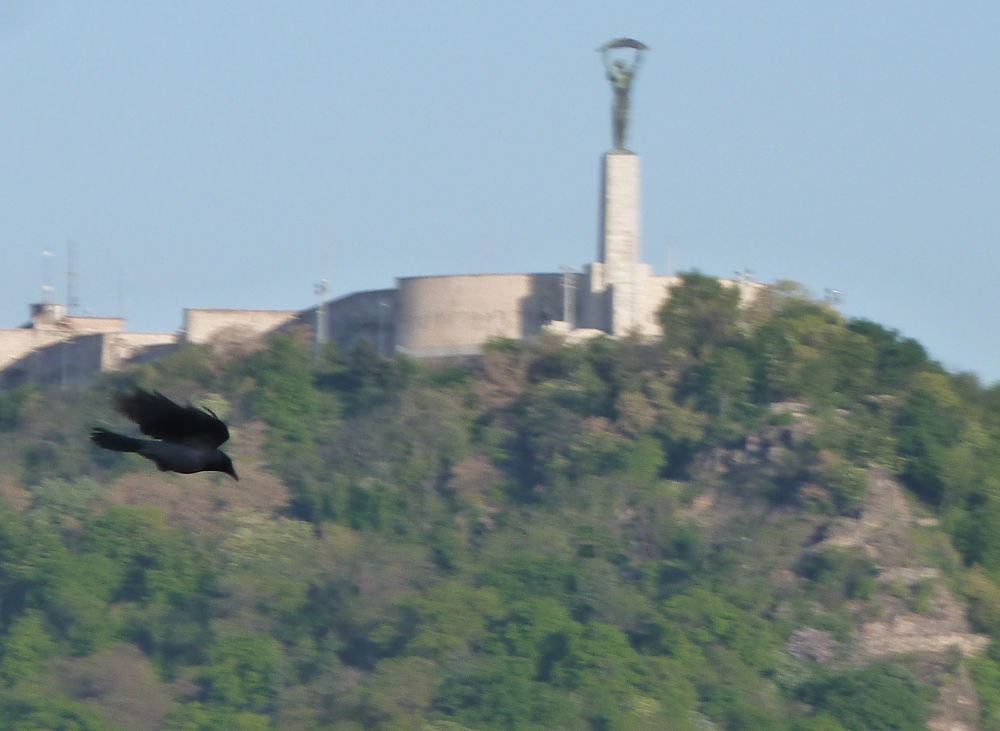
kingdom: Animalia
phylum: Chordata
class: Aves
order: Passeriformes
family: Corvidae
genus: Corvus
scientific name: Corvus cornix
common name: Hooded crow
